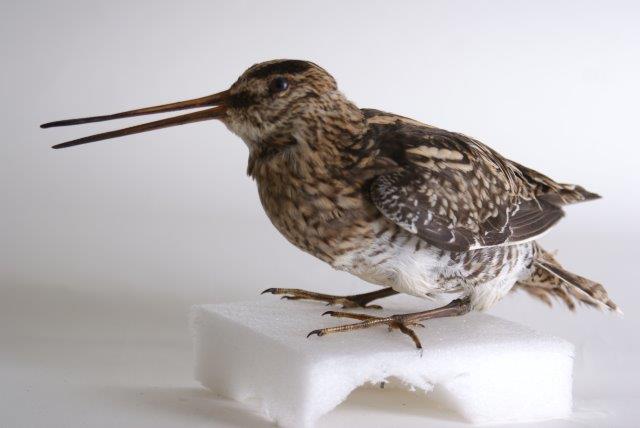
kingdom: Animalia
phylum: Chordata
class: Aves
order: Charadriiformes
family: Scolopacidae
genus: Gallinago
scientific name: Gallinago gallinago
